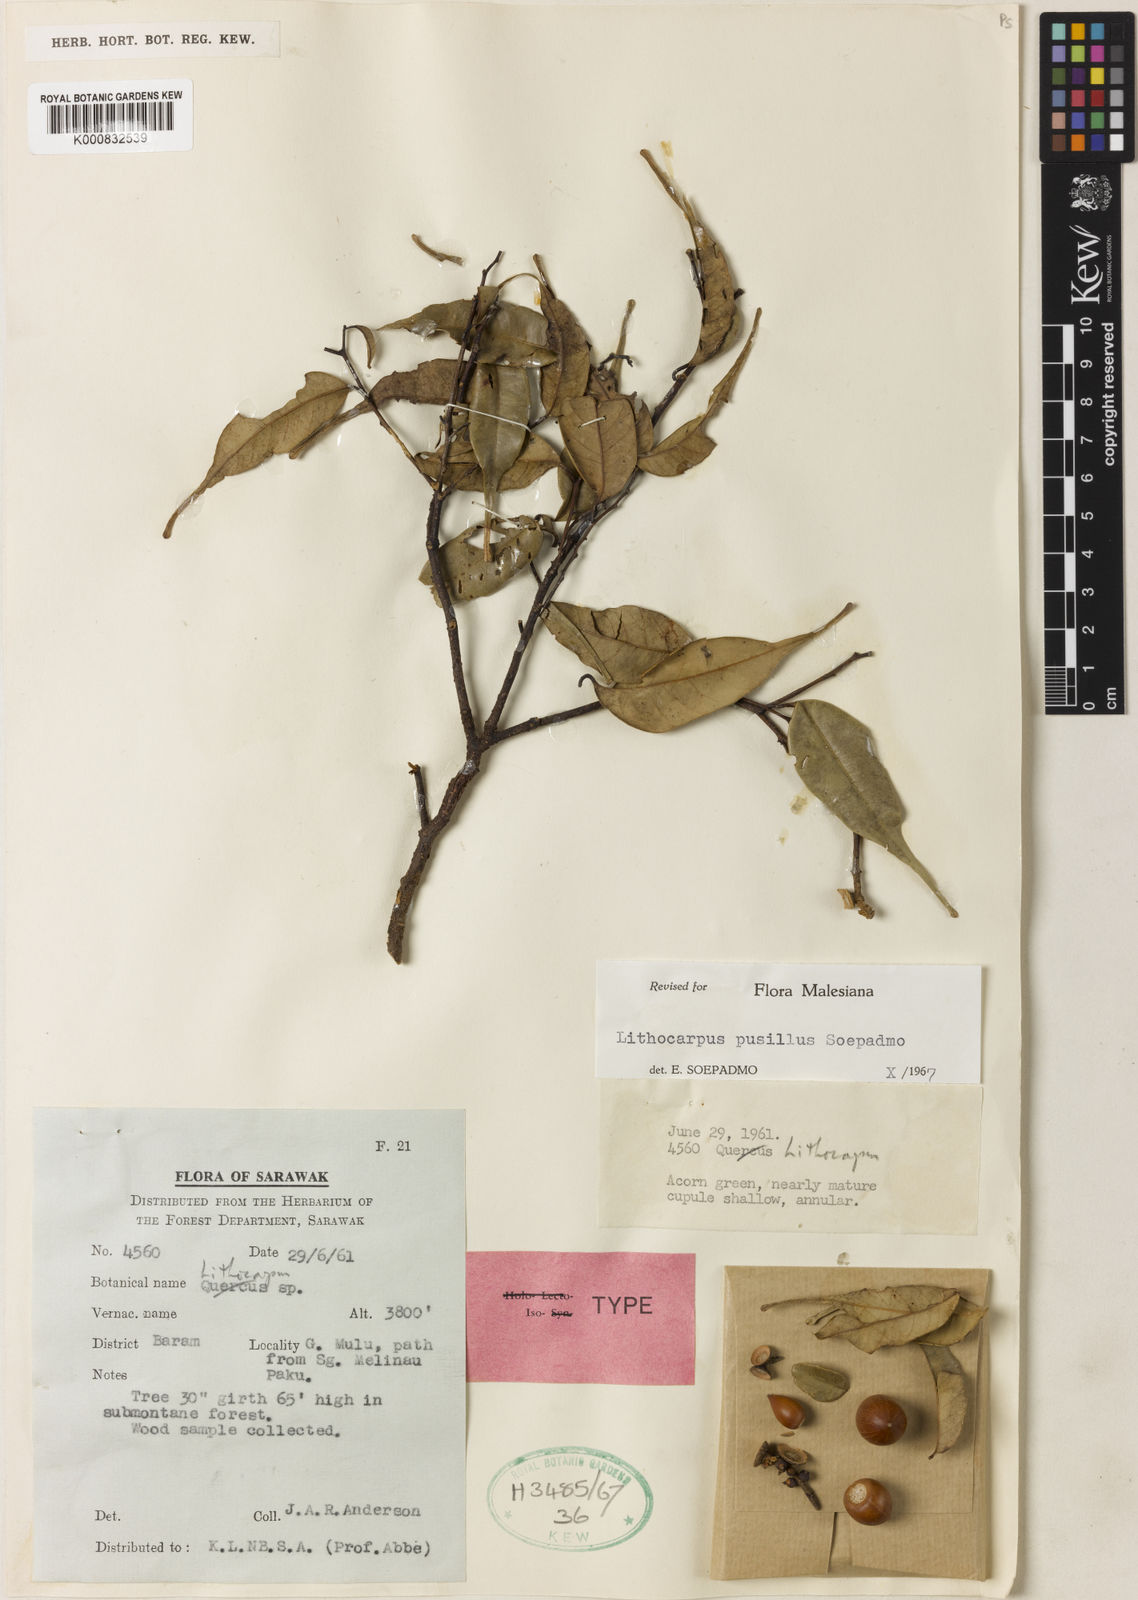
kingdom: Plantae
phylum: Tracheophyta
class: Magnoliopsida
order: Fagales
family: Fagaceae
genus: Lithocarpus
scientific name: Lithocarpus pusillus
